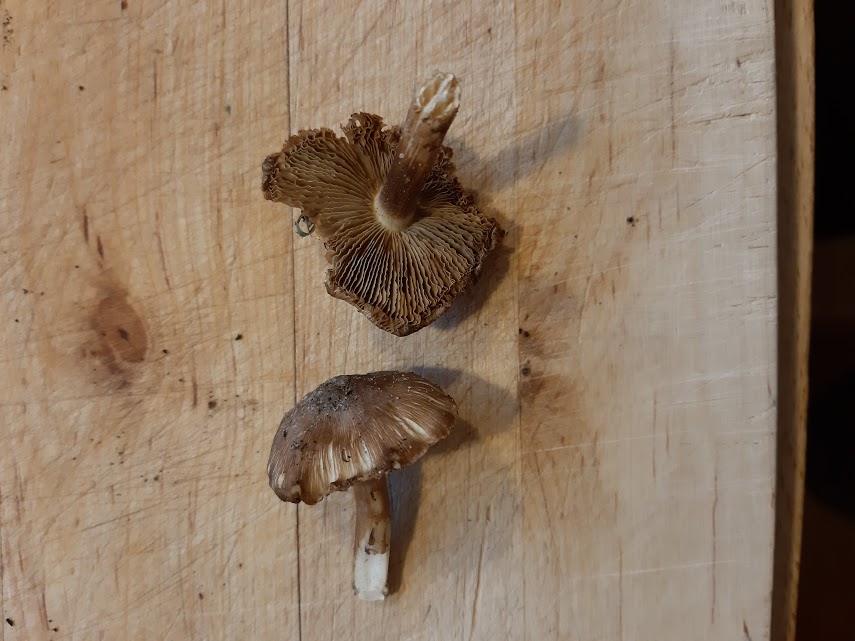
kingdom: Fungi
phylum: Basidiomycota
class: Agaricomycetes
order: Agaricales
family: Inocybaceae
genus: Inocybe
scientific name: Inocybe
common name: trævlhat
